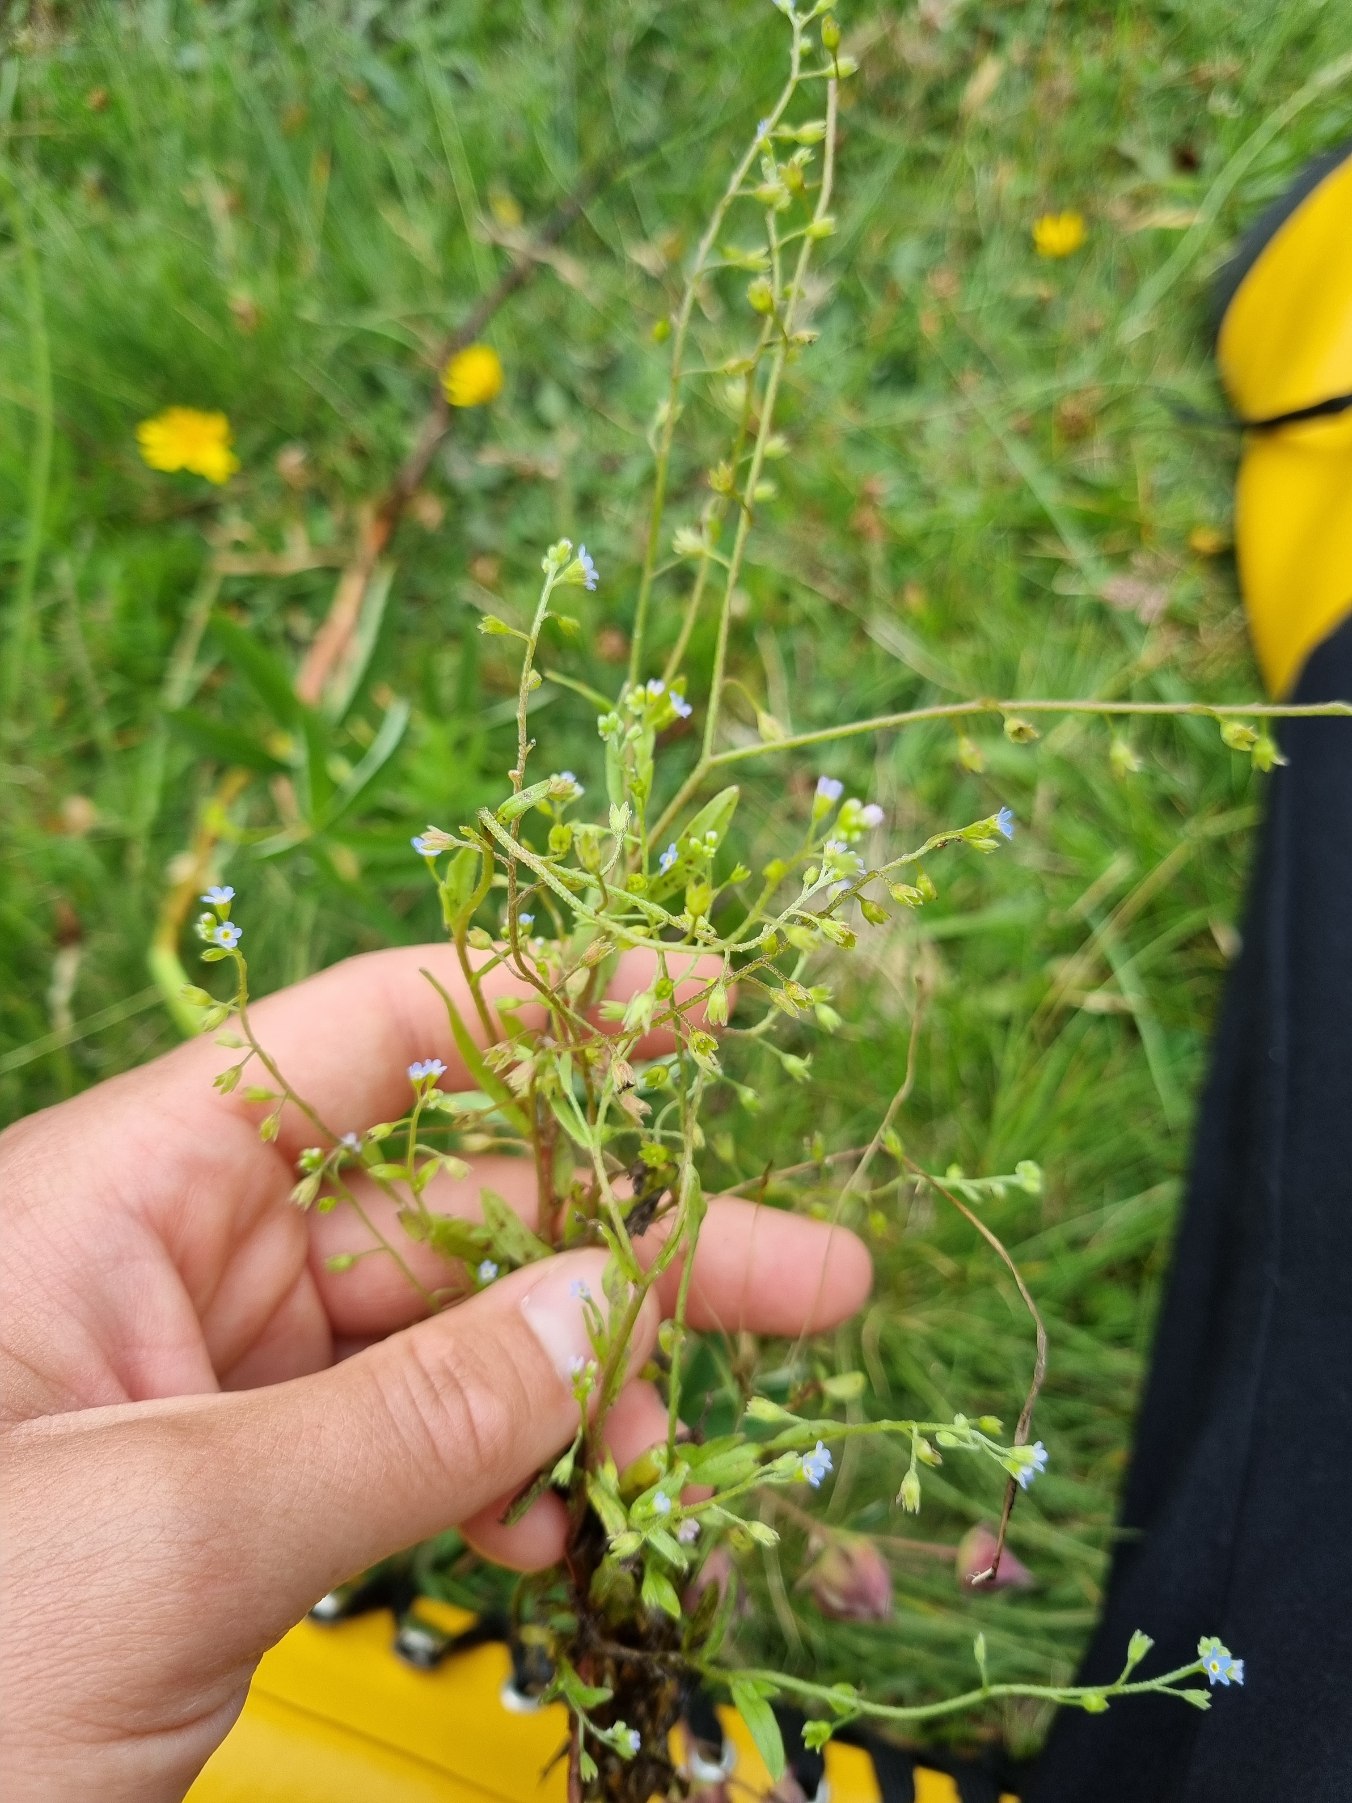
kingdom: Plantae
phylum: Tracheophyta
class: Magnoliopsida
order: Boraginales
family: Boraginaceae
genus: Myosotis
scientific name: Myosotis laxa
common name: Sump-forglemmigej (underart)
